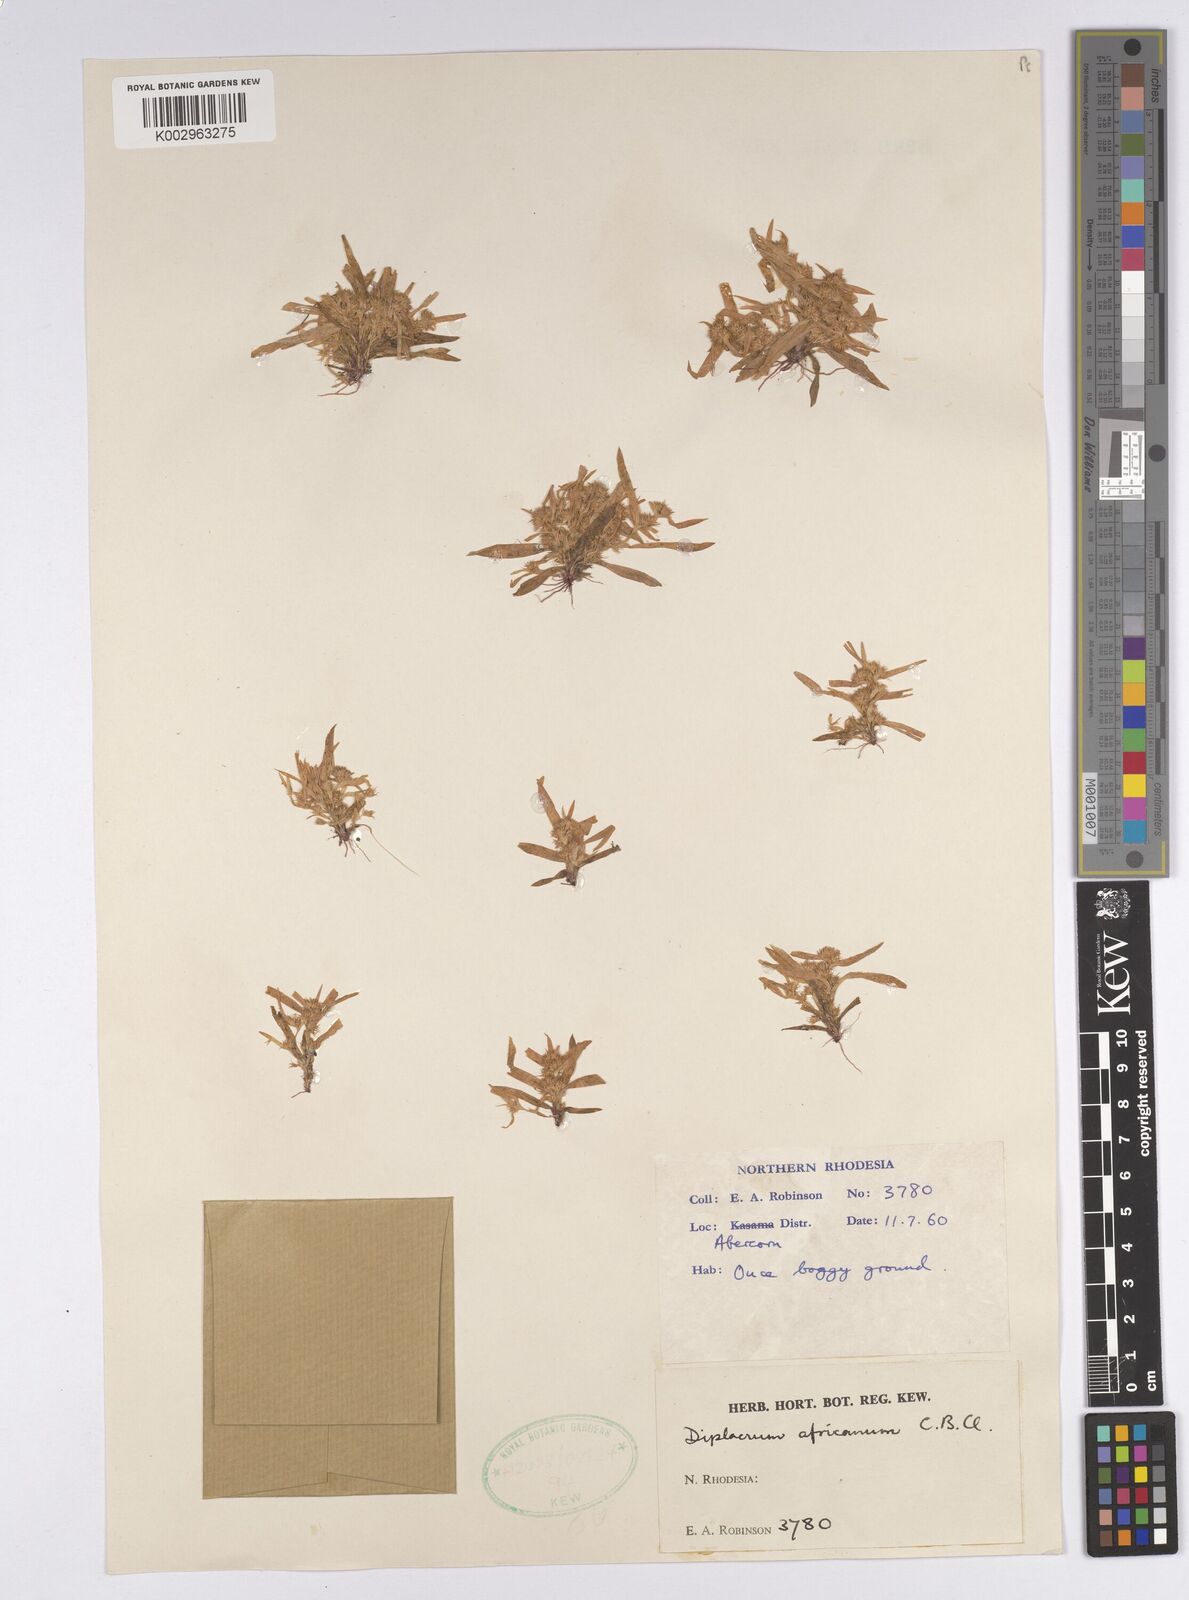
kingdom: Plantae
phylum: Tracheophyta
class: Liliopsida
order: Poales
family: Cyperaceae
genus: Diplacrum
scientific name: Diplacrum africanum
